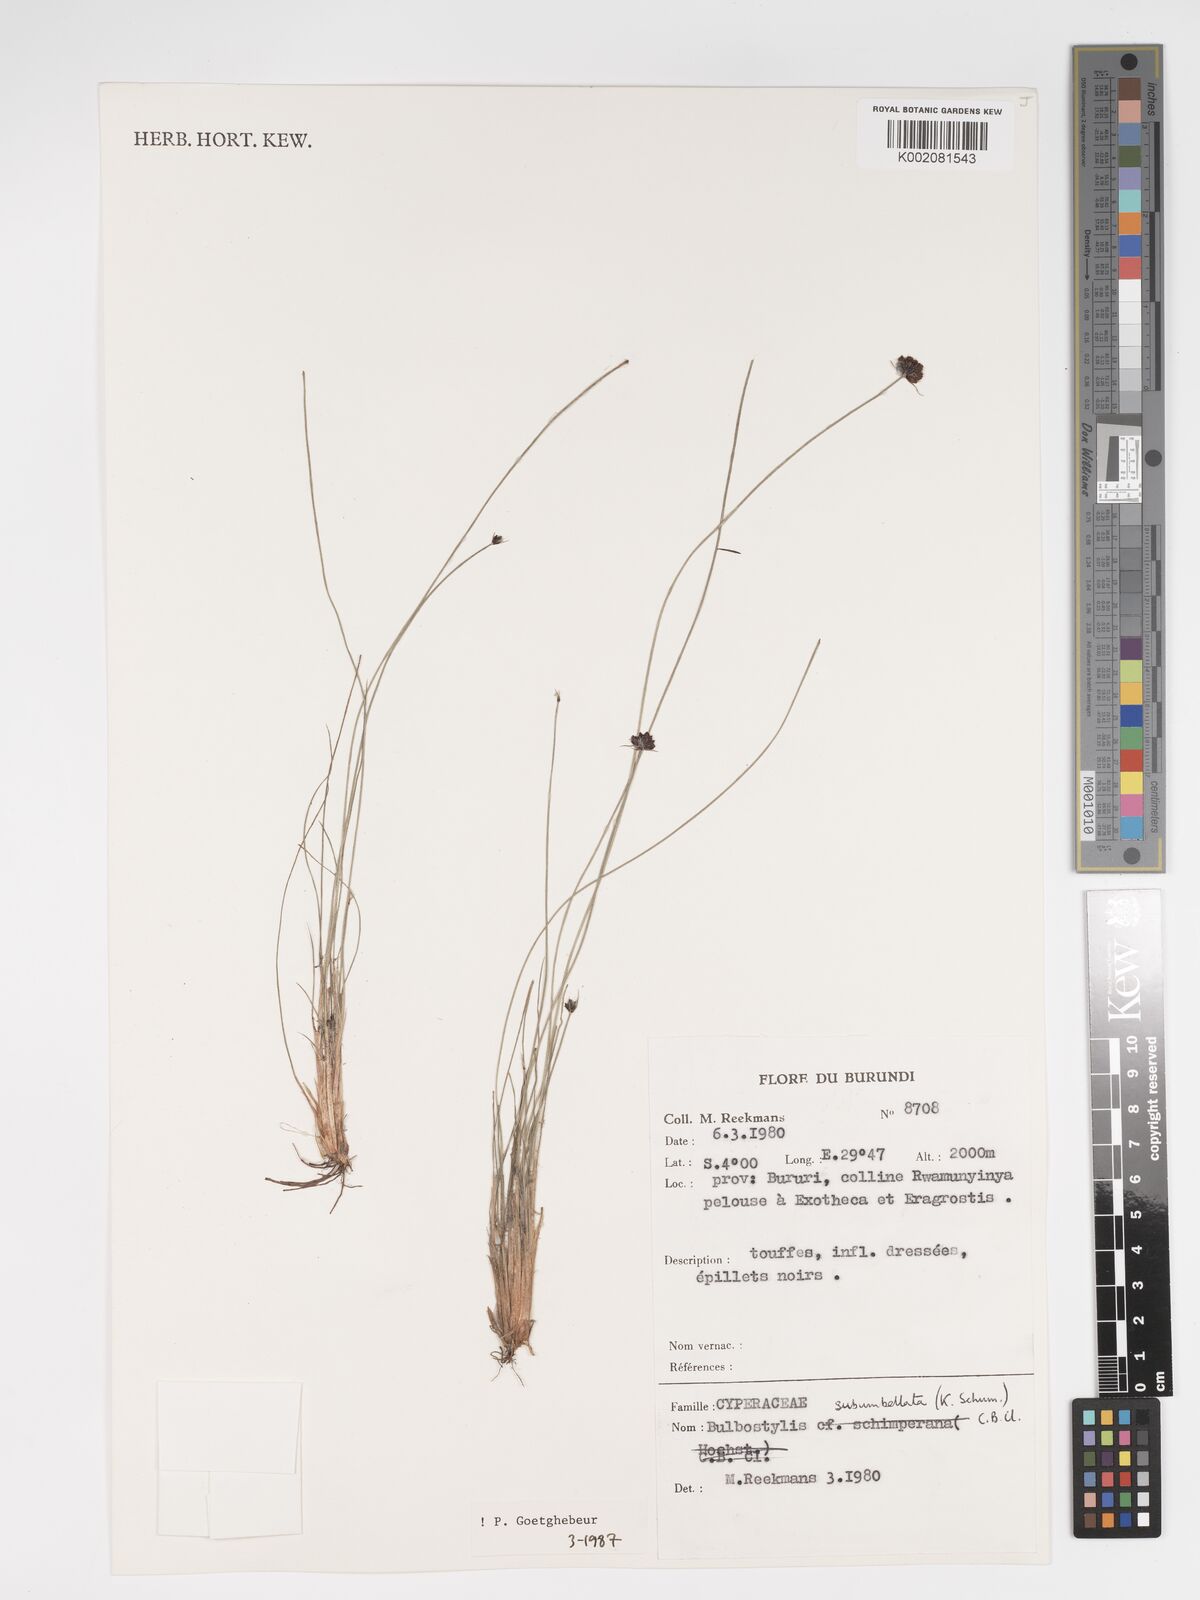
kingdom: Plantae
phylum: Tracheophyta
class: Liliopsida
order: Poales
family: Cyperaceae
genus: Bulbostylis
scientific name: Bulbostylis hensii
